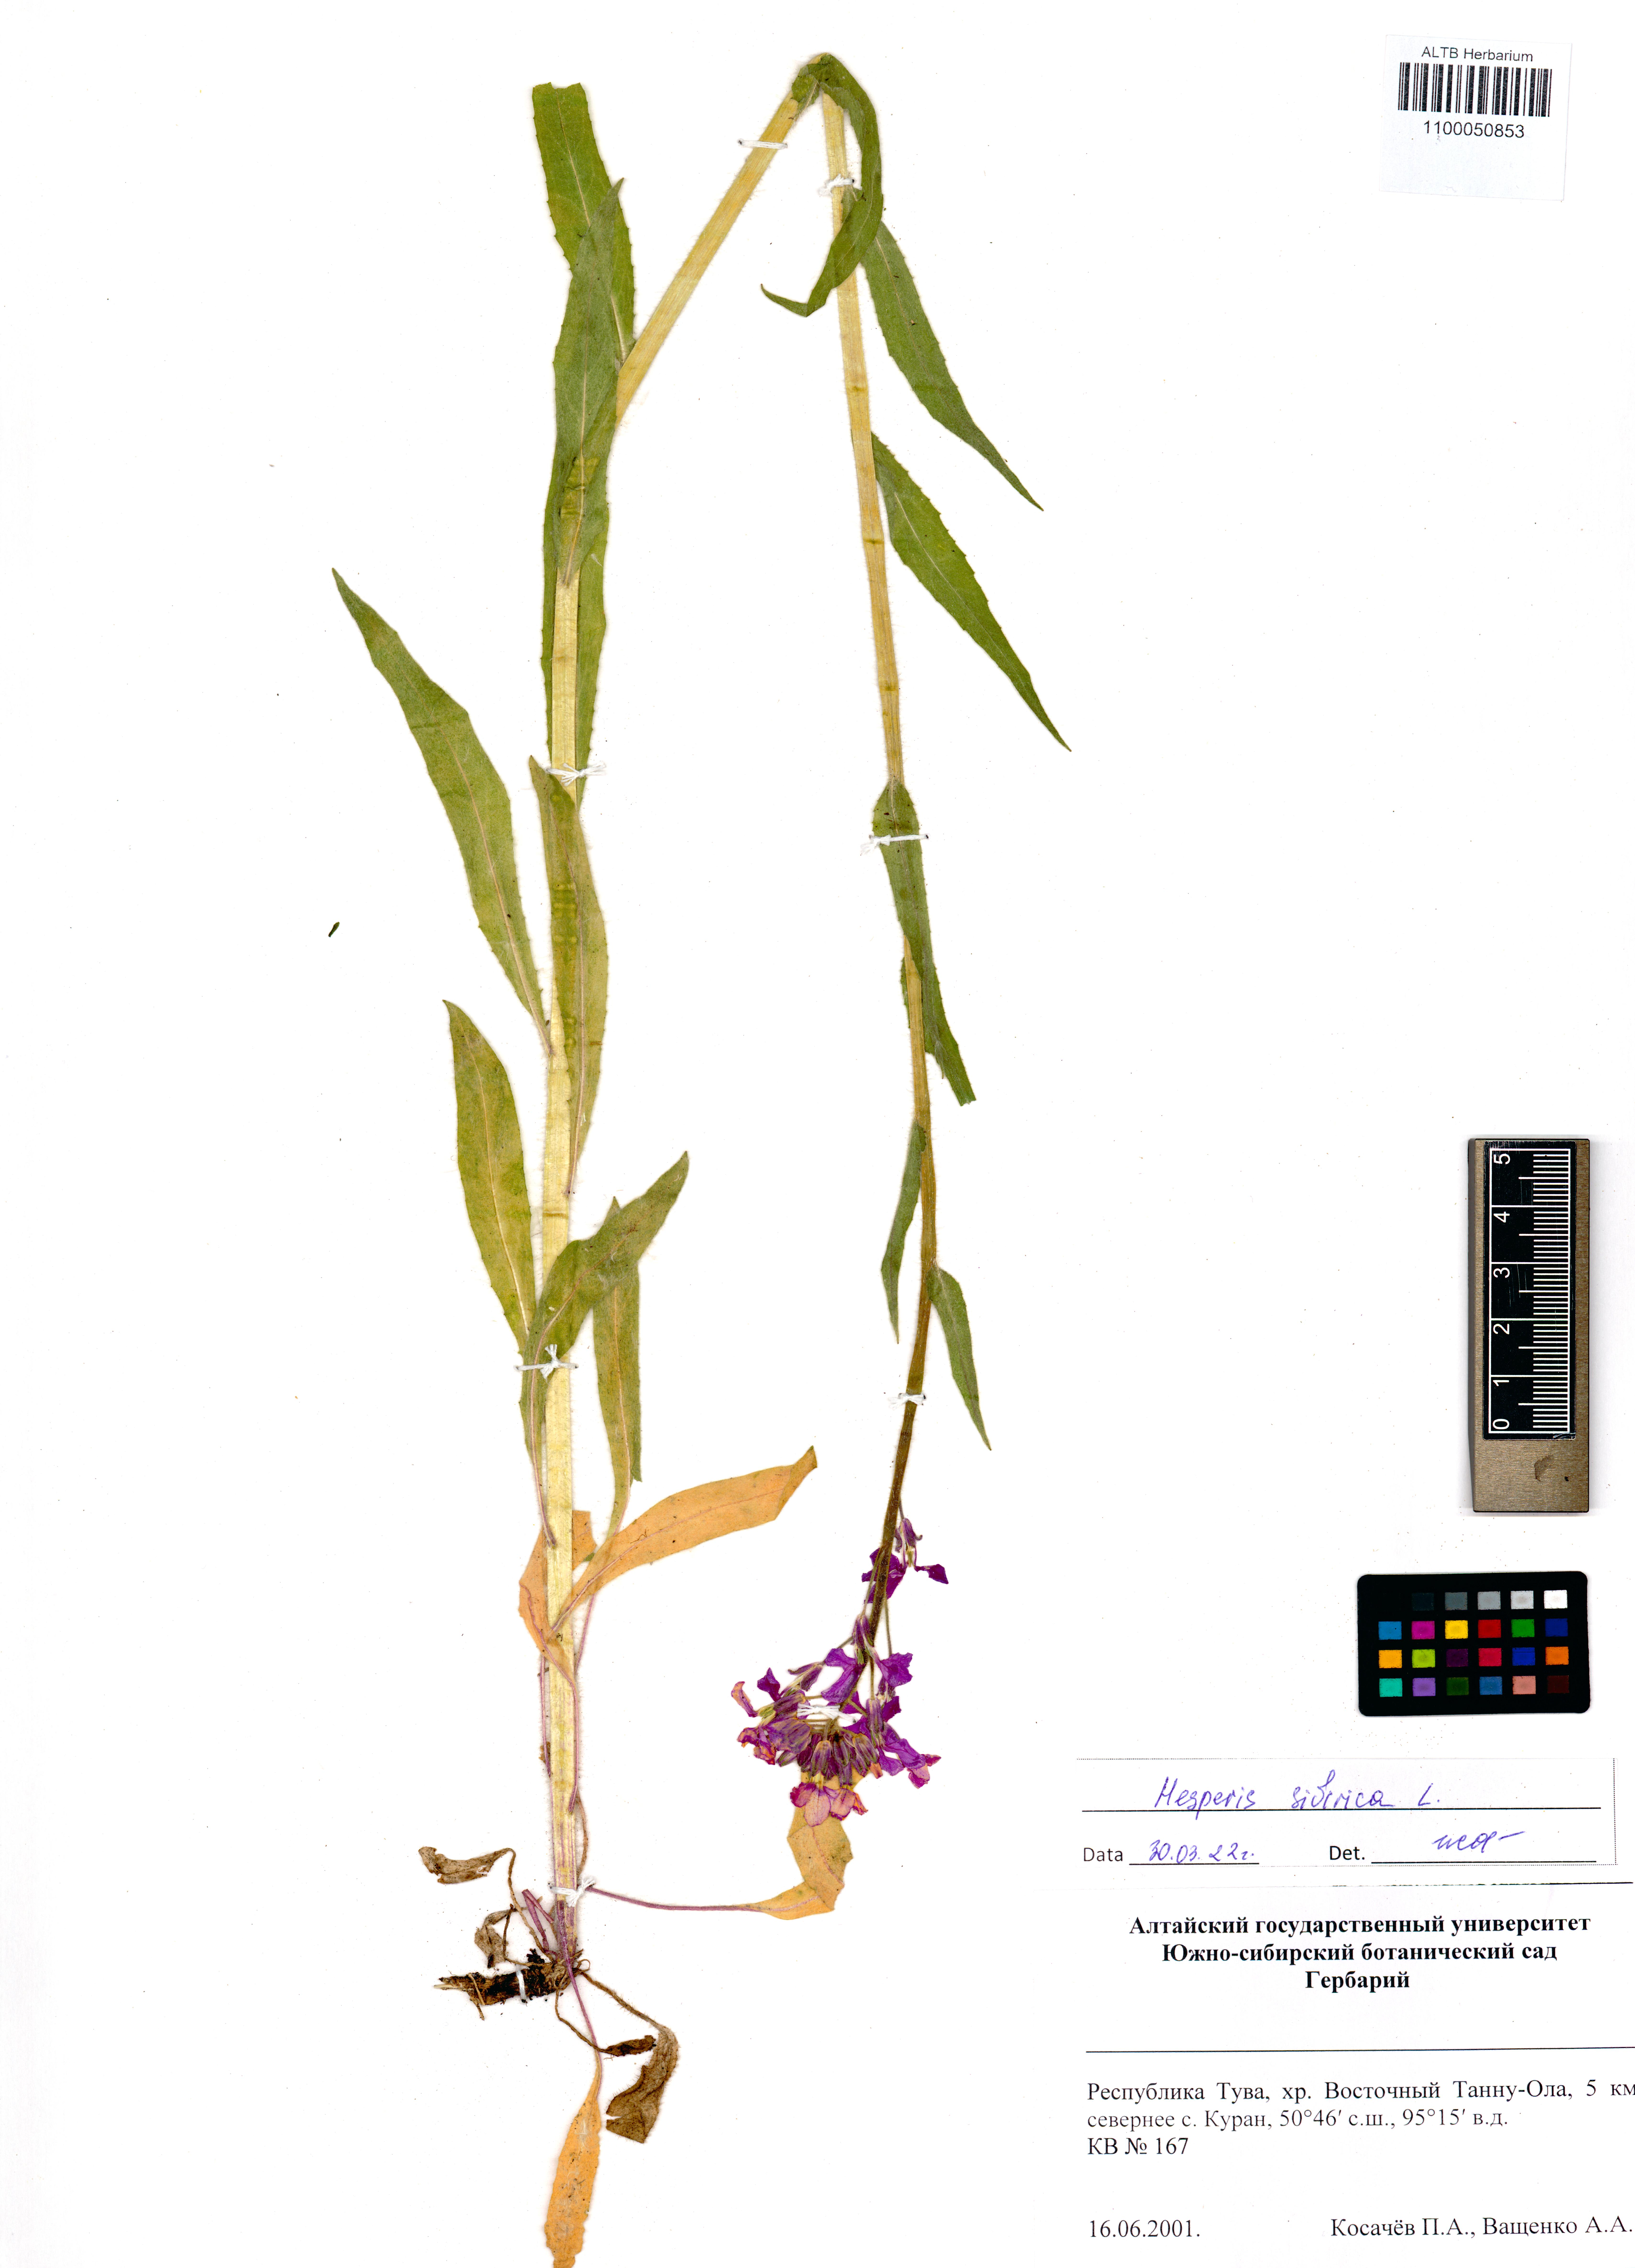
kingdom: Plantae
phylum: Tracheophyta
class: Magnoliopsida
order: Brassicales
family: Brassicaceae
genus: Hesperis
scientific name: Hesperis sibirica
